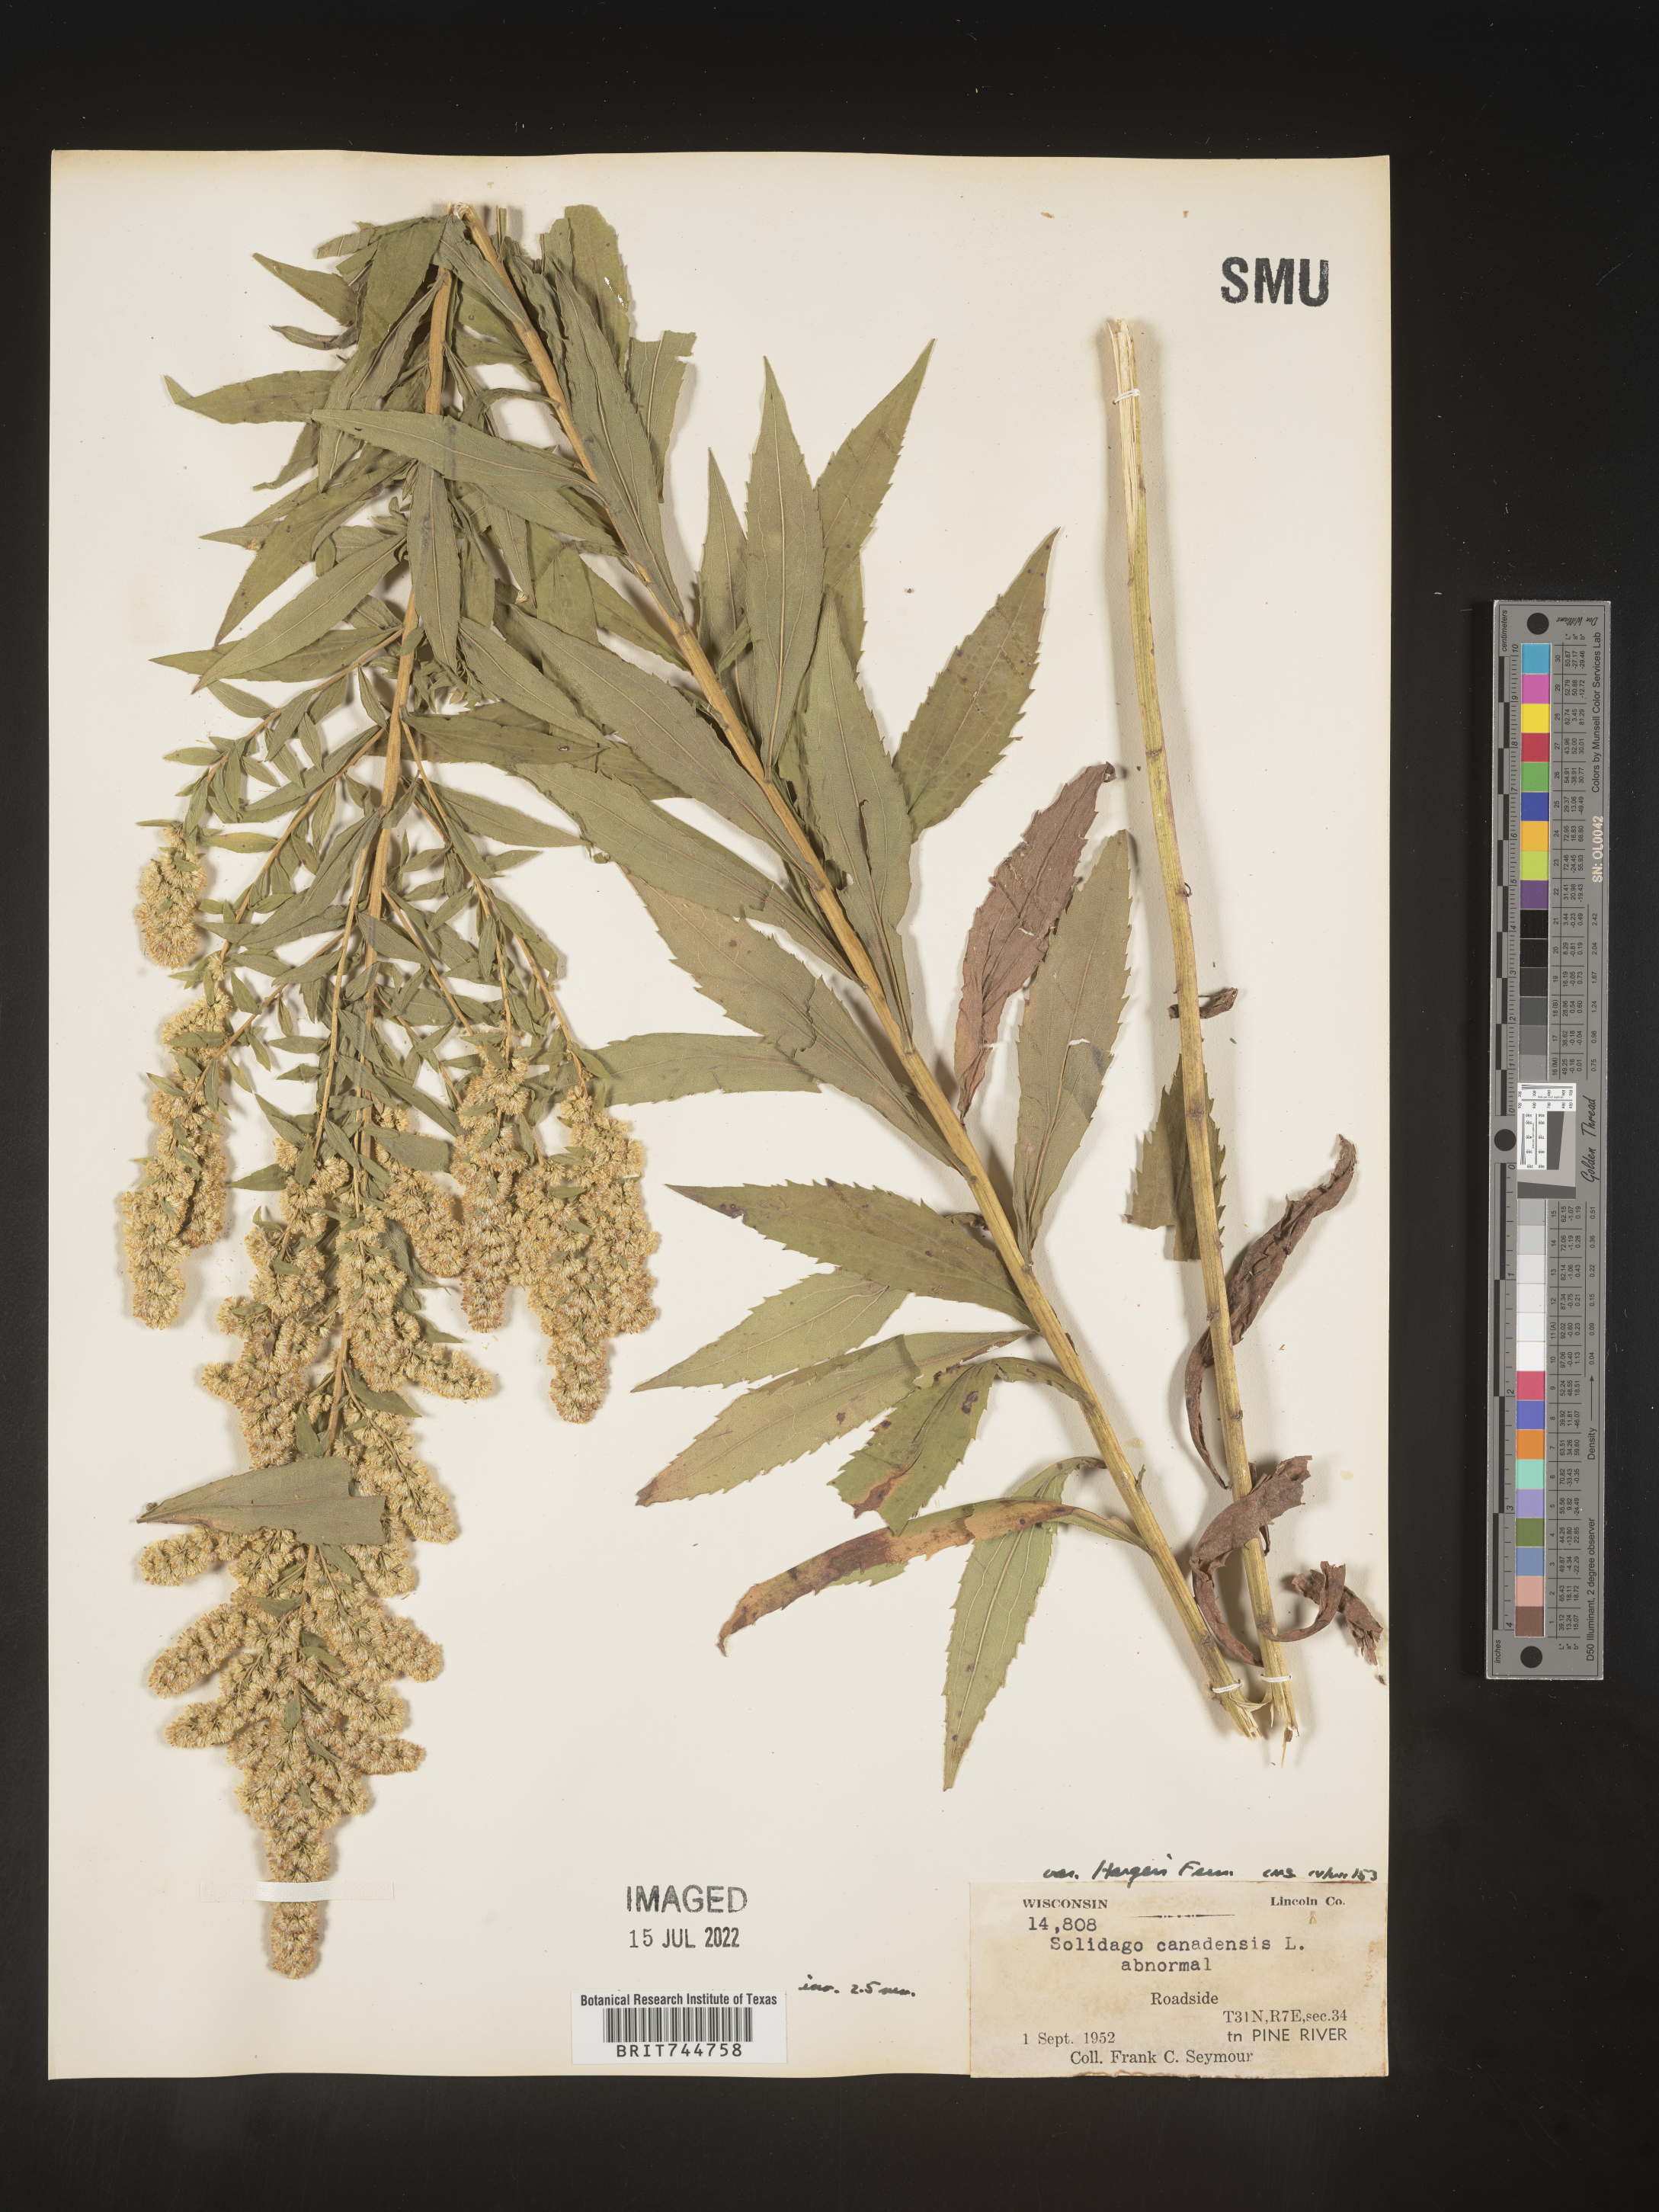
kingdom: Plantae
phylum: Tracheophyta
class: Magnoliopsida
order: Asterales
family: Asteraceae
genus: Solidago
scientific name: Solidago canadensis
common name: Canada goldenrod
